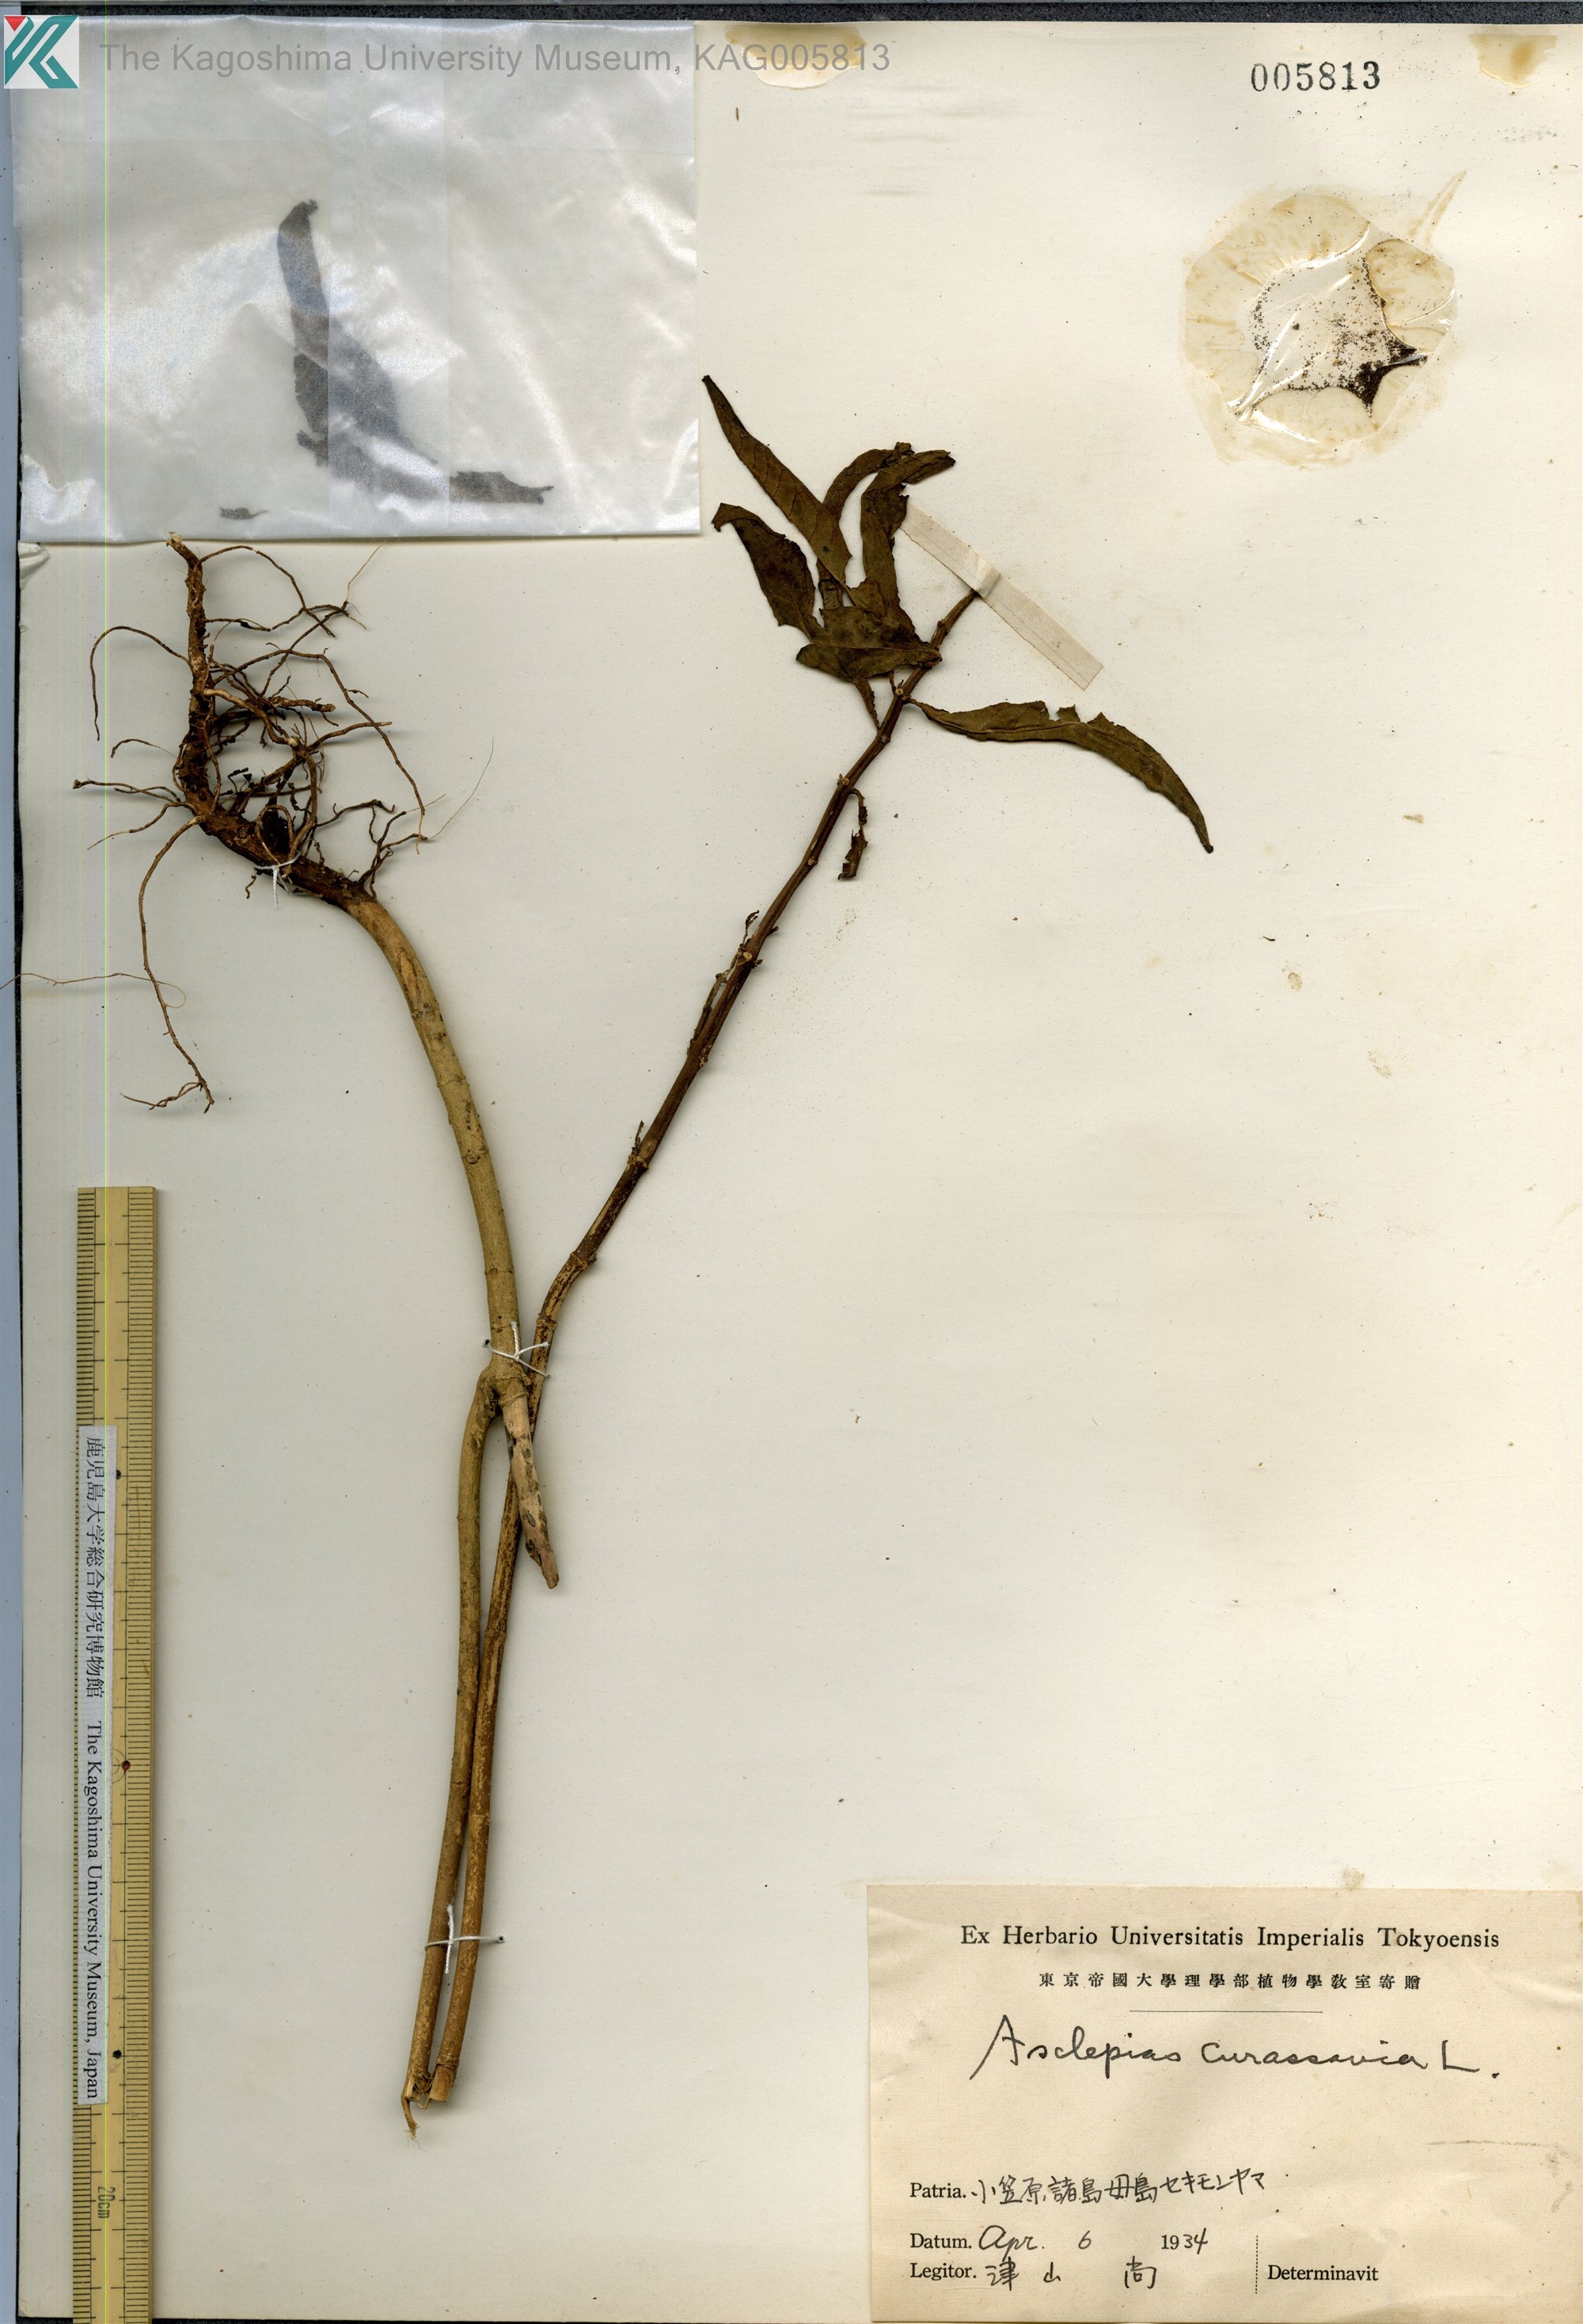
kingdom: Plantae
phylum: Tracheophyta
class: Magnoliopsida
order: Gentianales
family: Apocynaceae
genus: Asclepias
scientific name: Asclepias
